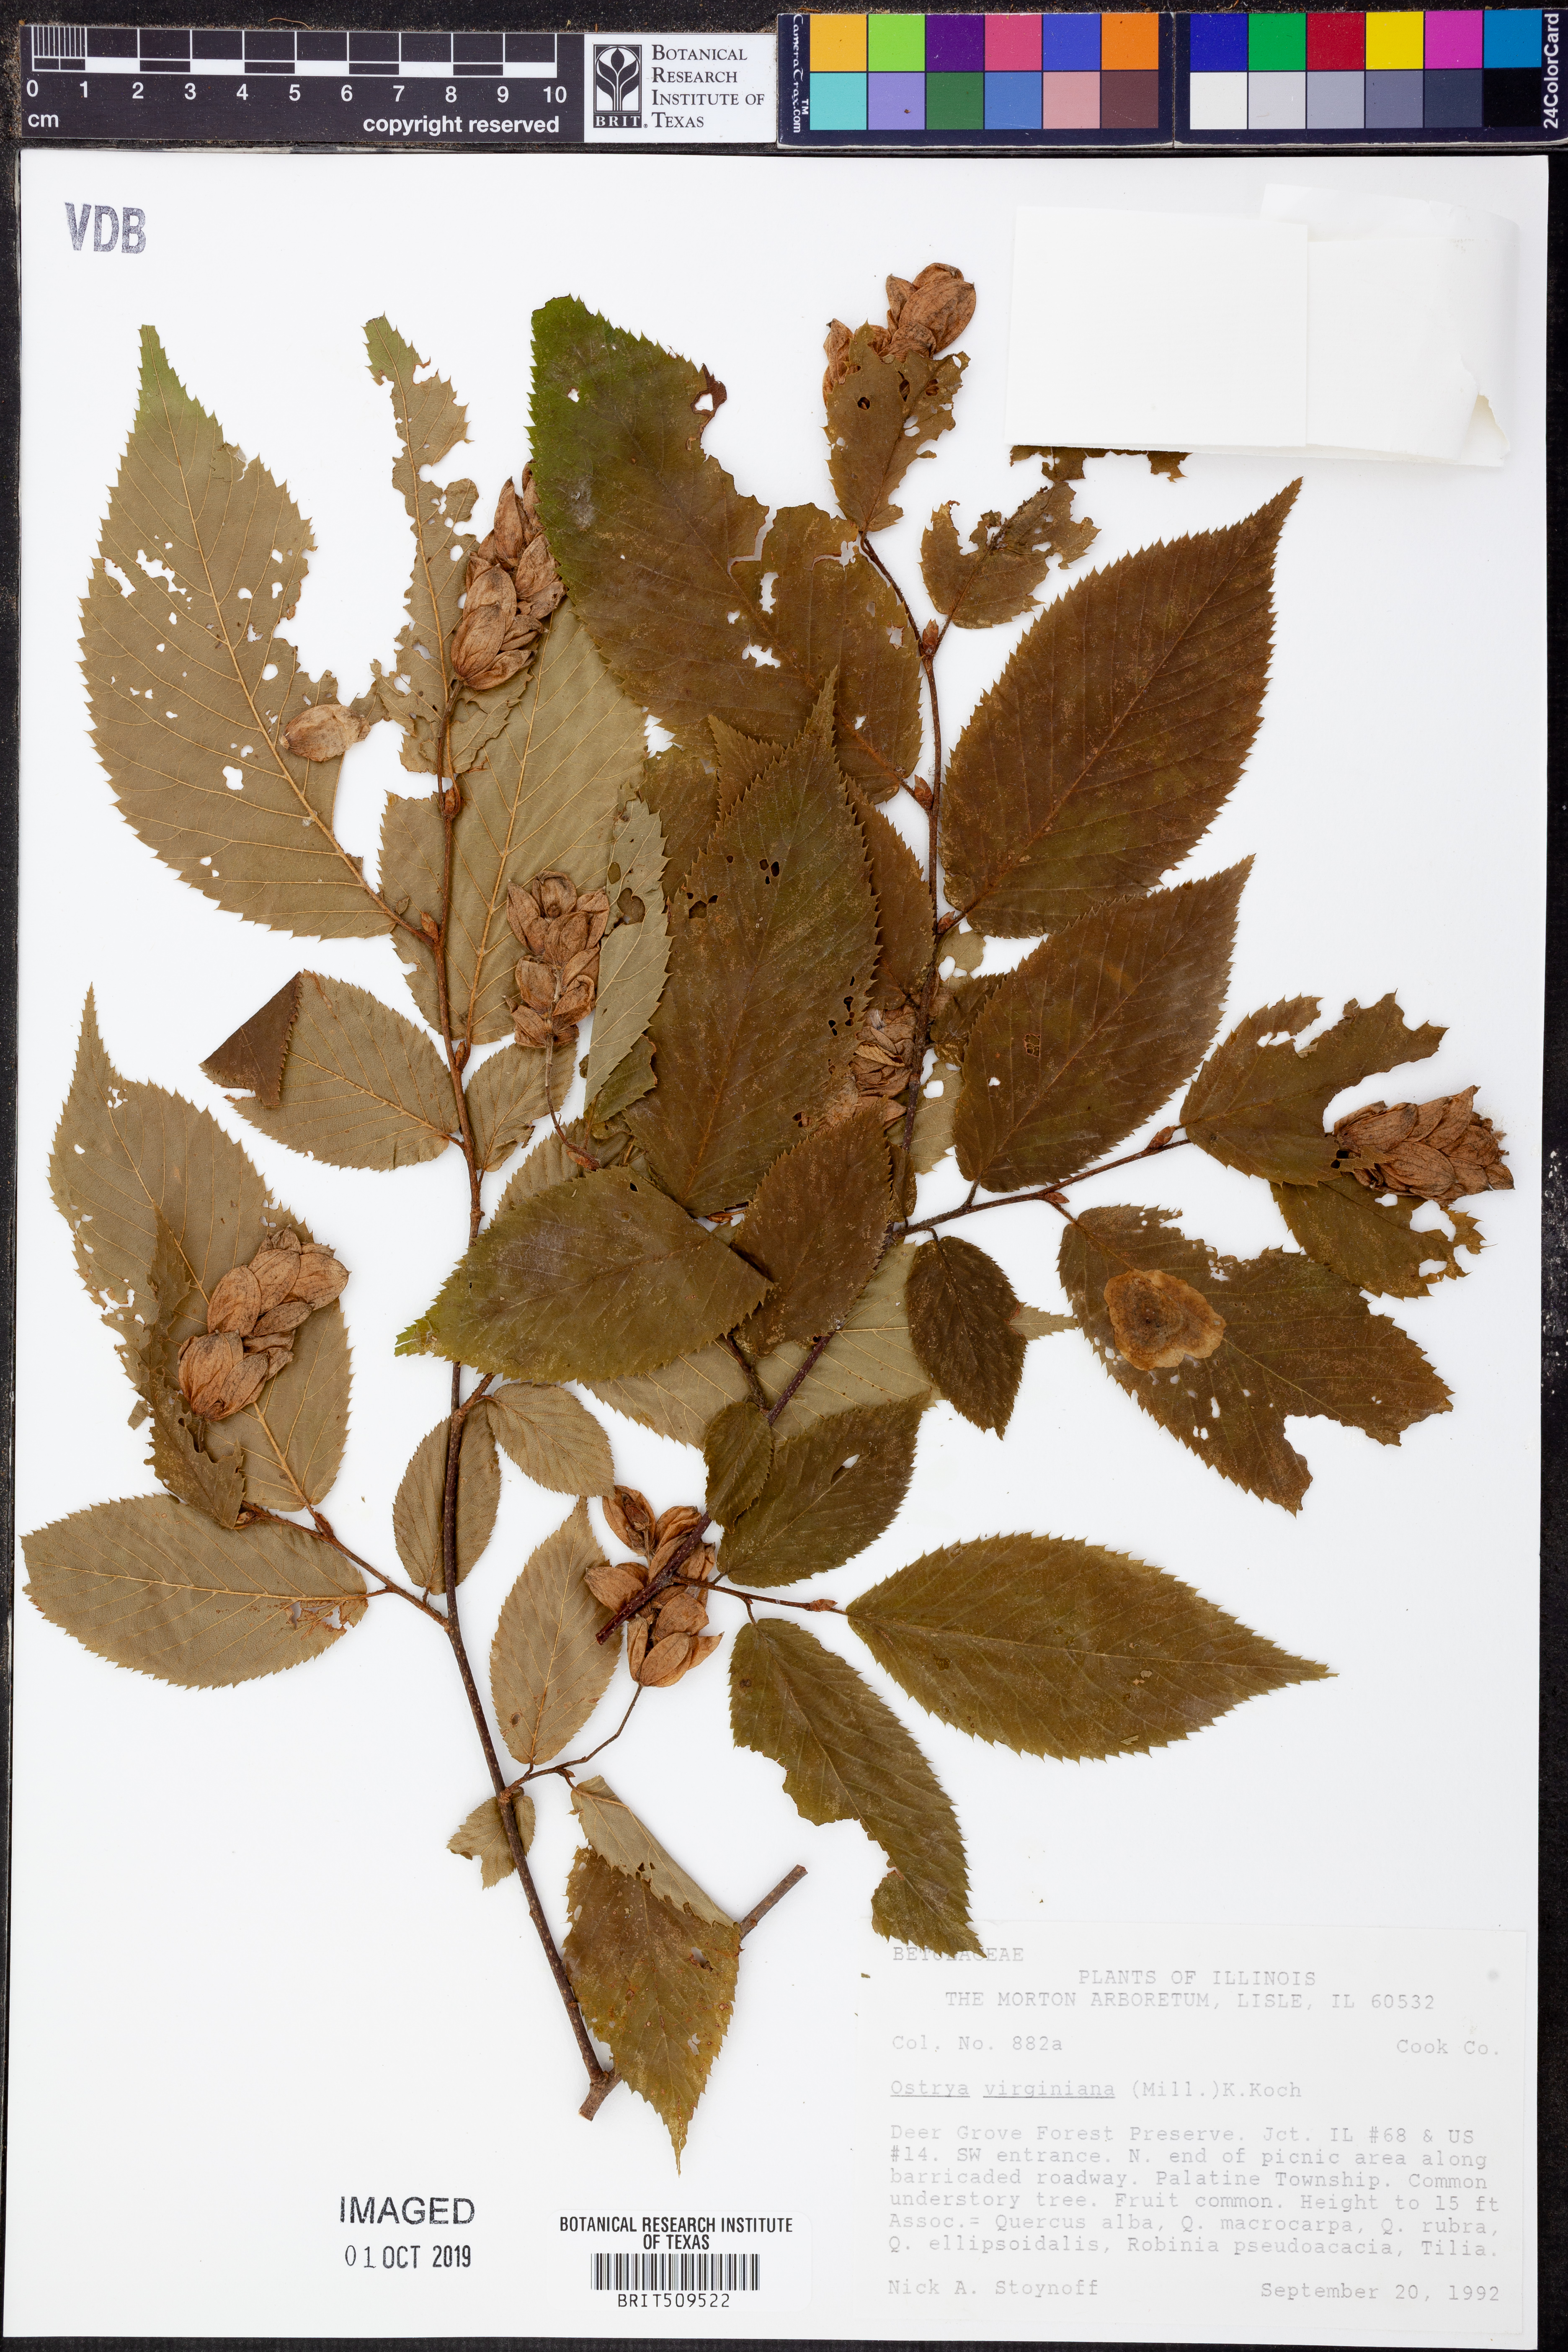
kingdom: Plantae
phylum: Tracheophyta
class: Magnoliopsida
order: Fagales
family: Betulaceae
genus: Ostrya
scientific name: Ostrya virginiana
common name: Ironwood
